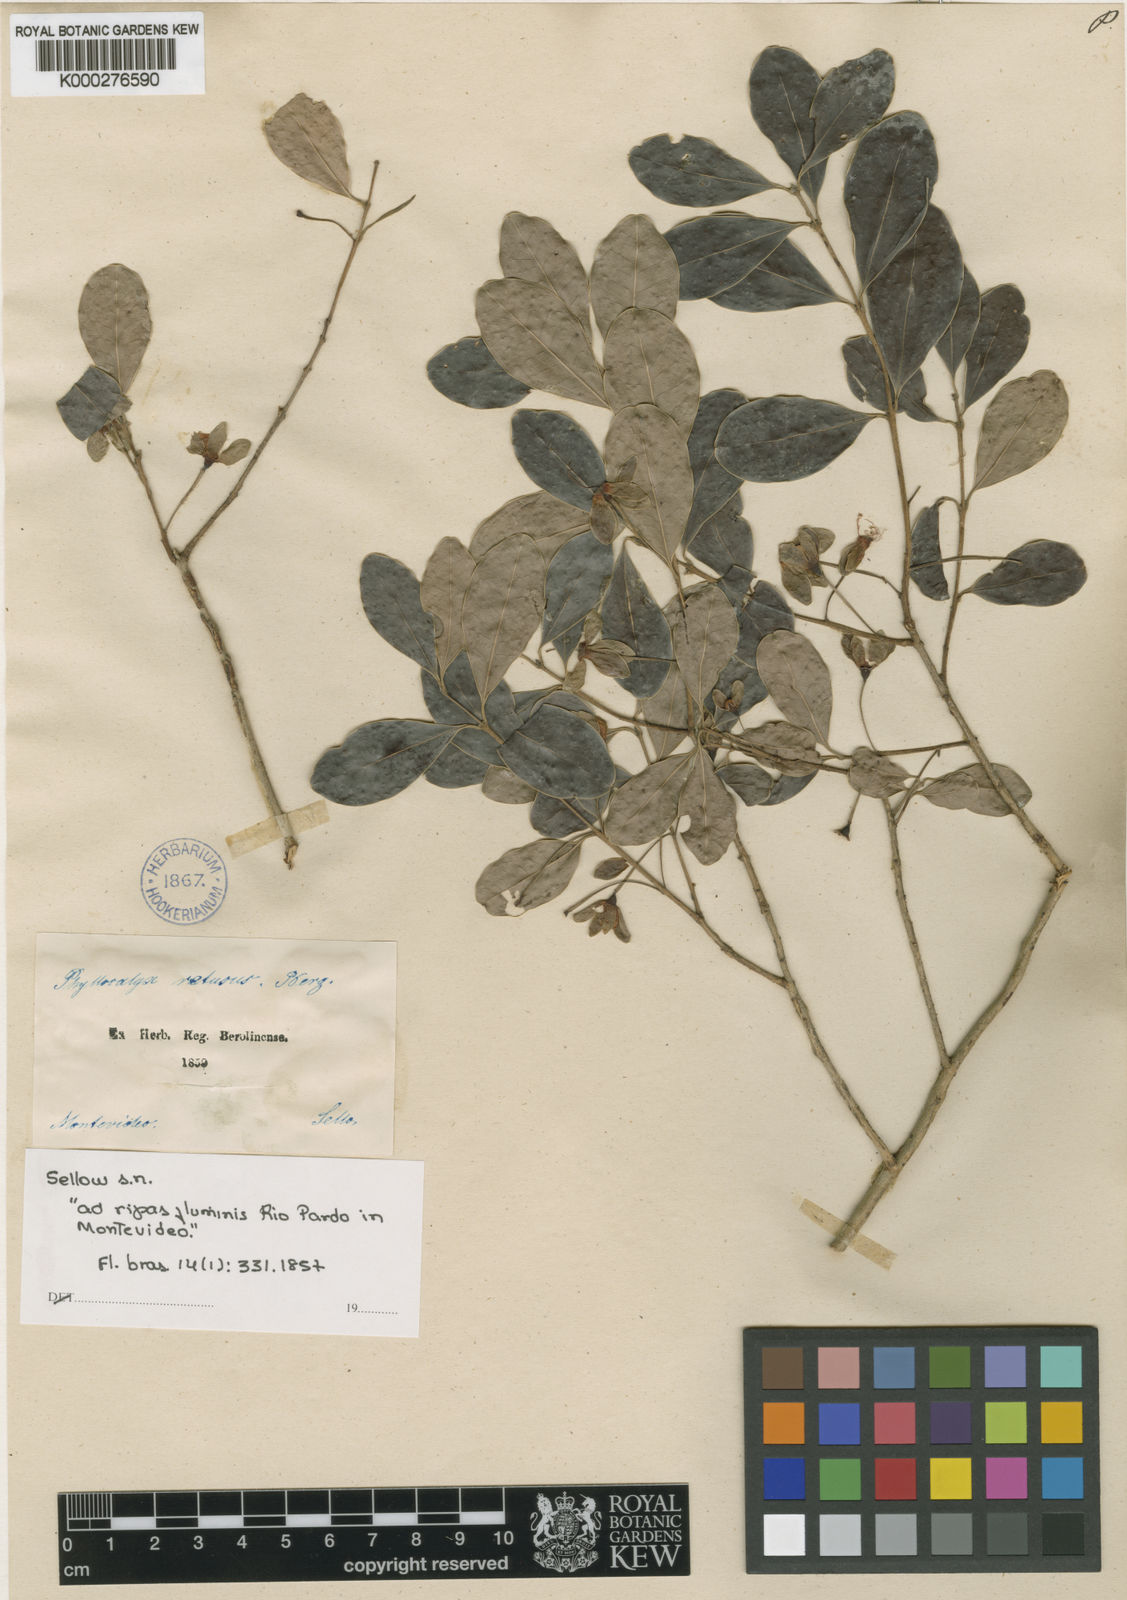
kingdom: Plantae
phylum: Tracheophyta
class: Magnoliopsida
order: Myrtales
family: Myrtaceae
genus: Eugenia
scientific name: Eugenia speciosa
